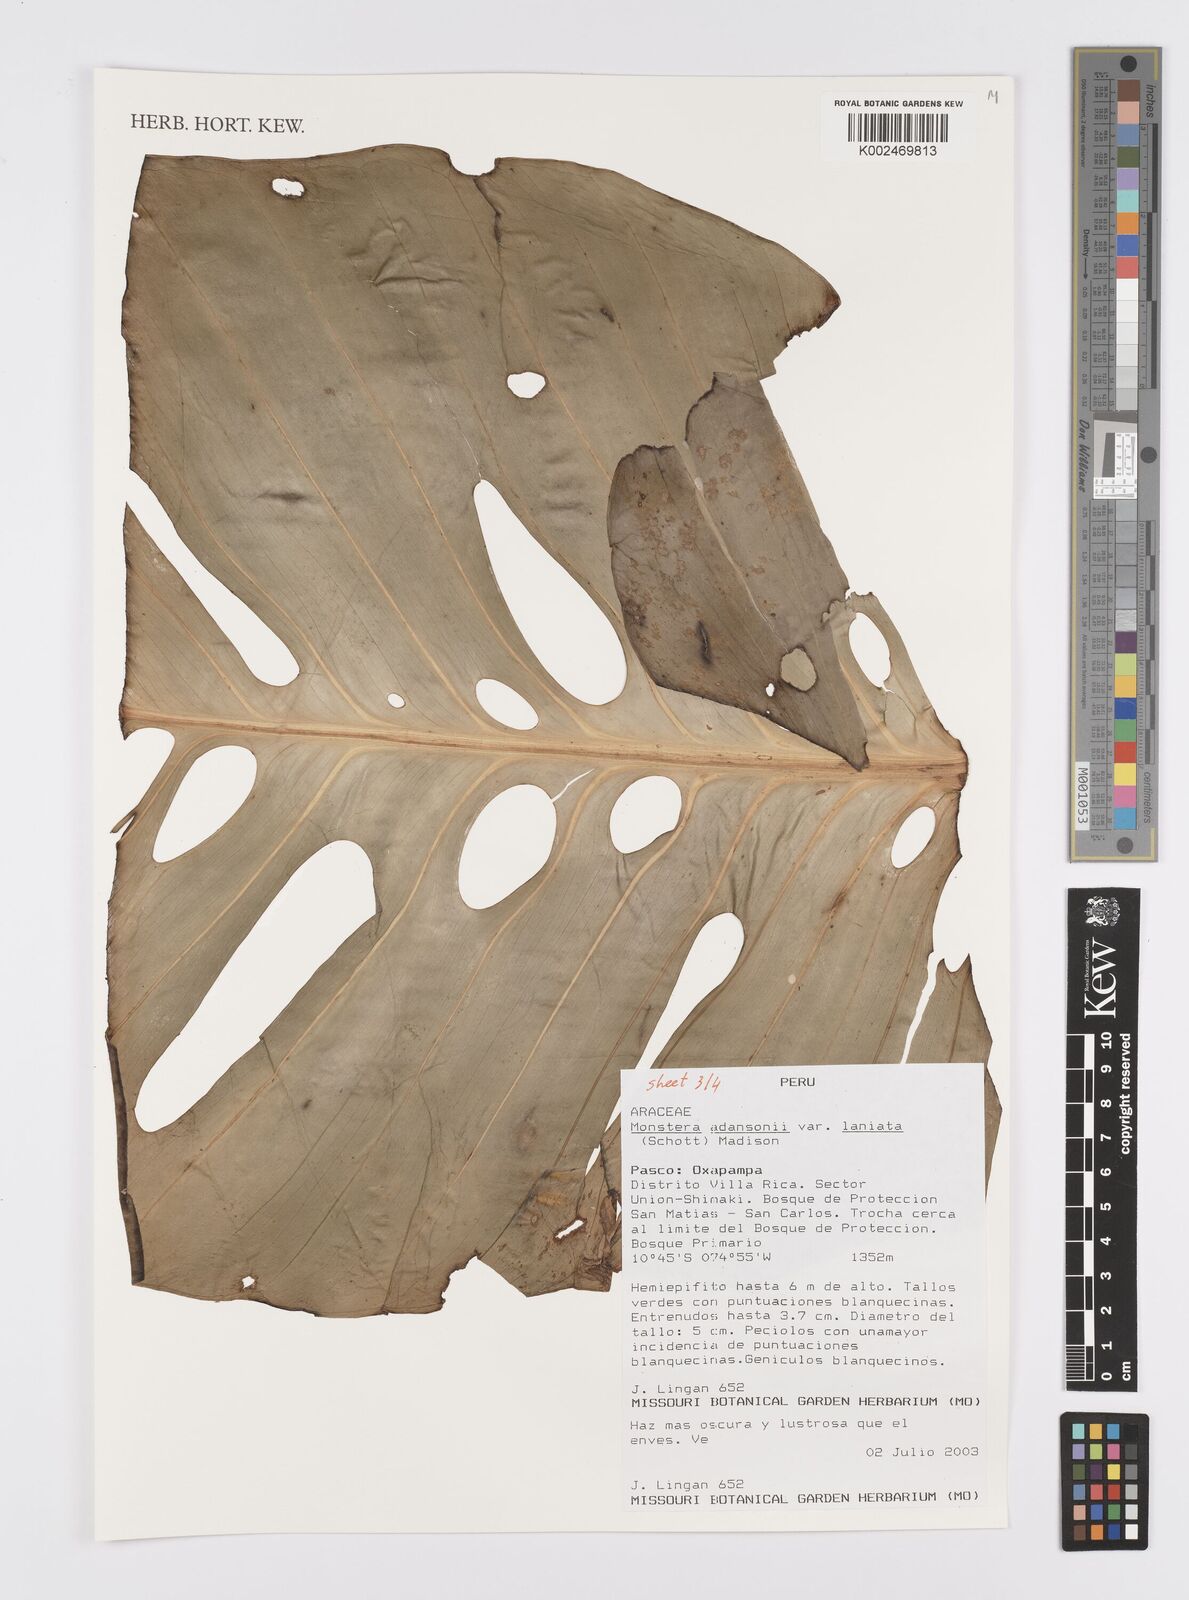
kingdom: Plantae
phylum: Tracheophyta
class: Liliopsida
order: Alismatales
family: Araceae
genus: Monstera
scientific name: Monstera adansonii
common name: Tarovine
